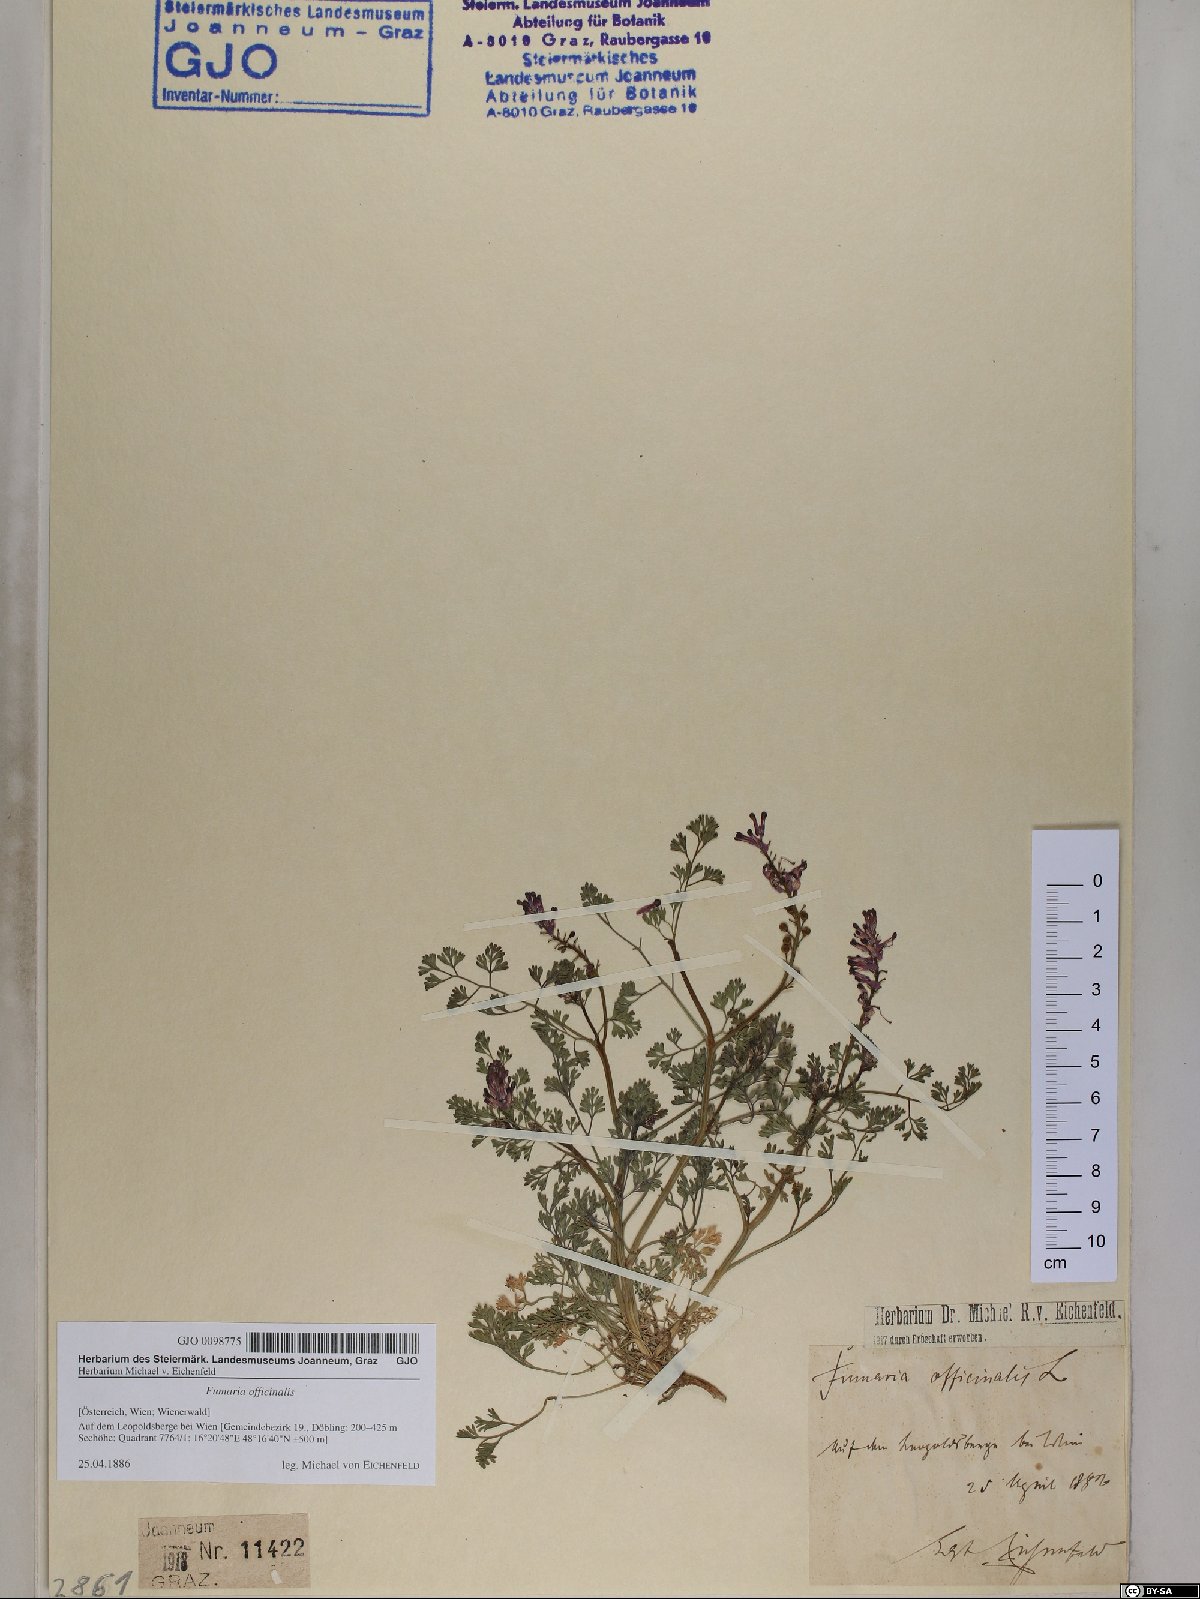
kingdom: Plantae
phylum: Tracheophyta
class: Magnoliopsida
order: Ranunculales
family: Papaveraceae
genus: Fumaria
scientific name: Fumaria officinalis
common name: Common fumitory
